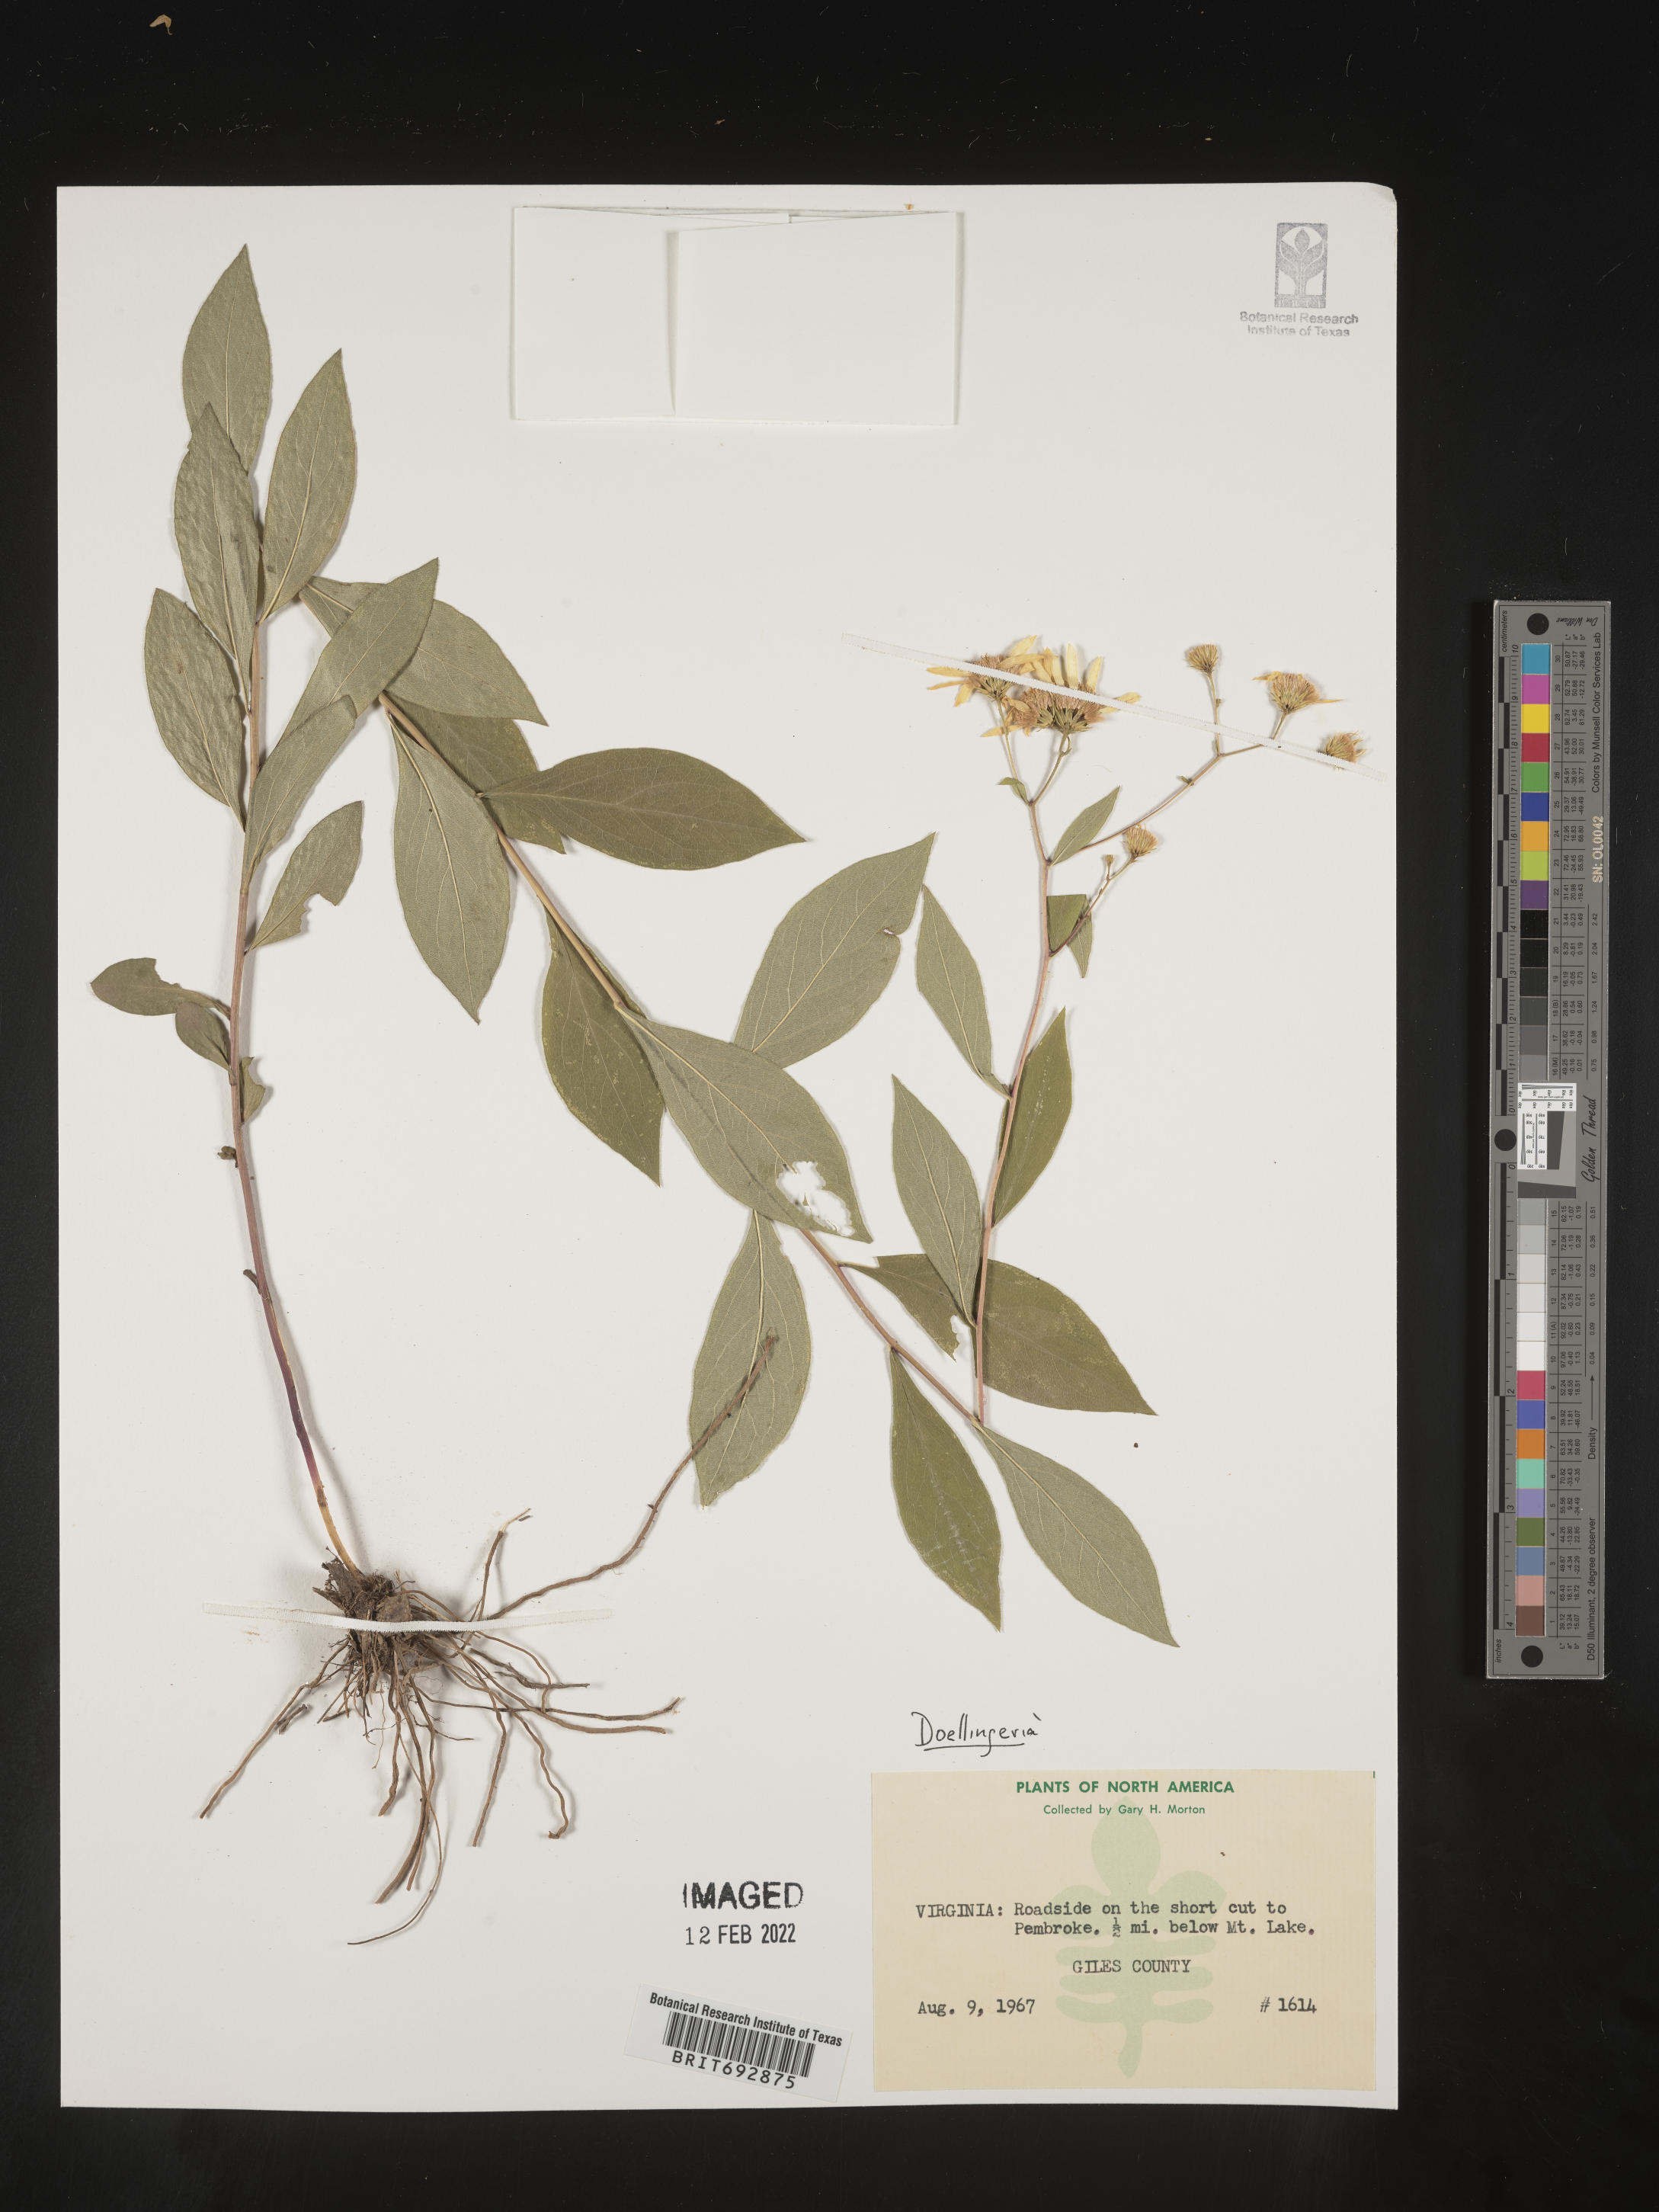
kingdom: Plantae
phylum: Tracheophyta
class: Magnoliopsida
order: Asterales
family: Asteraceae
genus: Doellingeria
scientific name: Doellingeria umbellata
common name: Flat-top white aster
